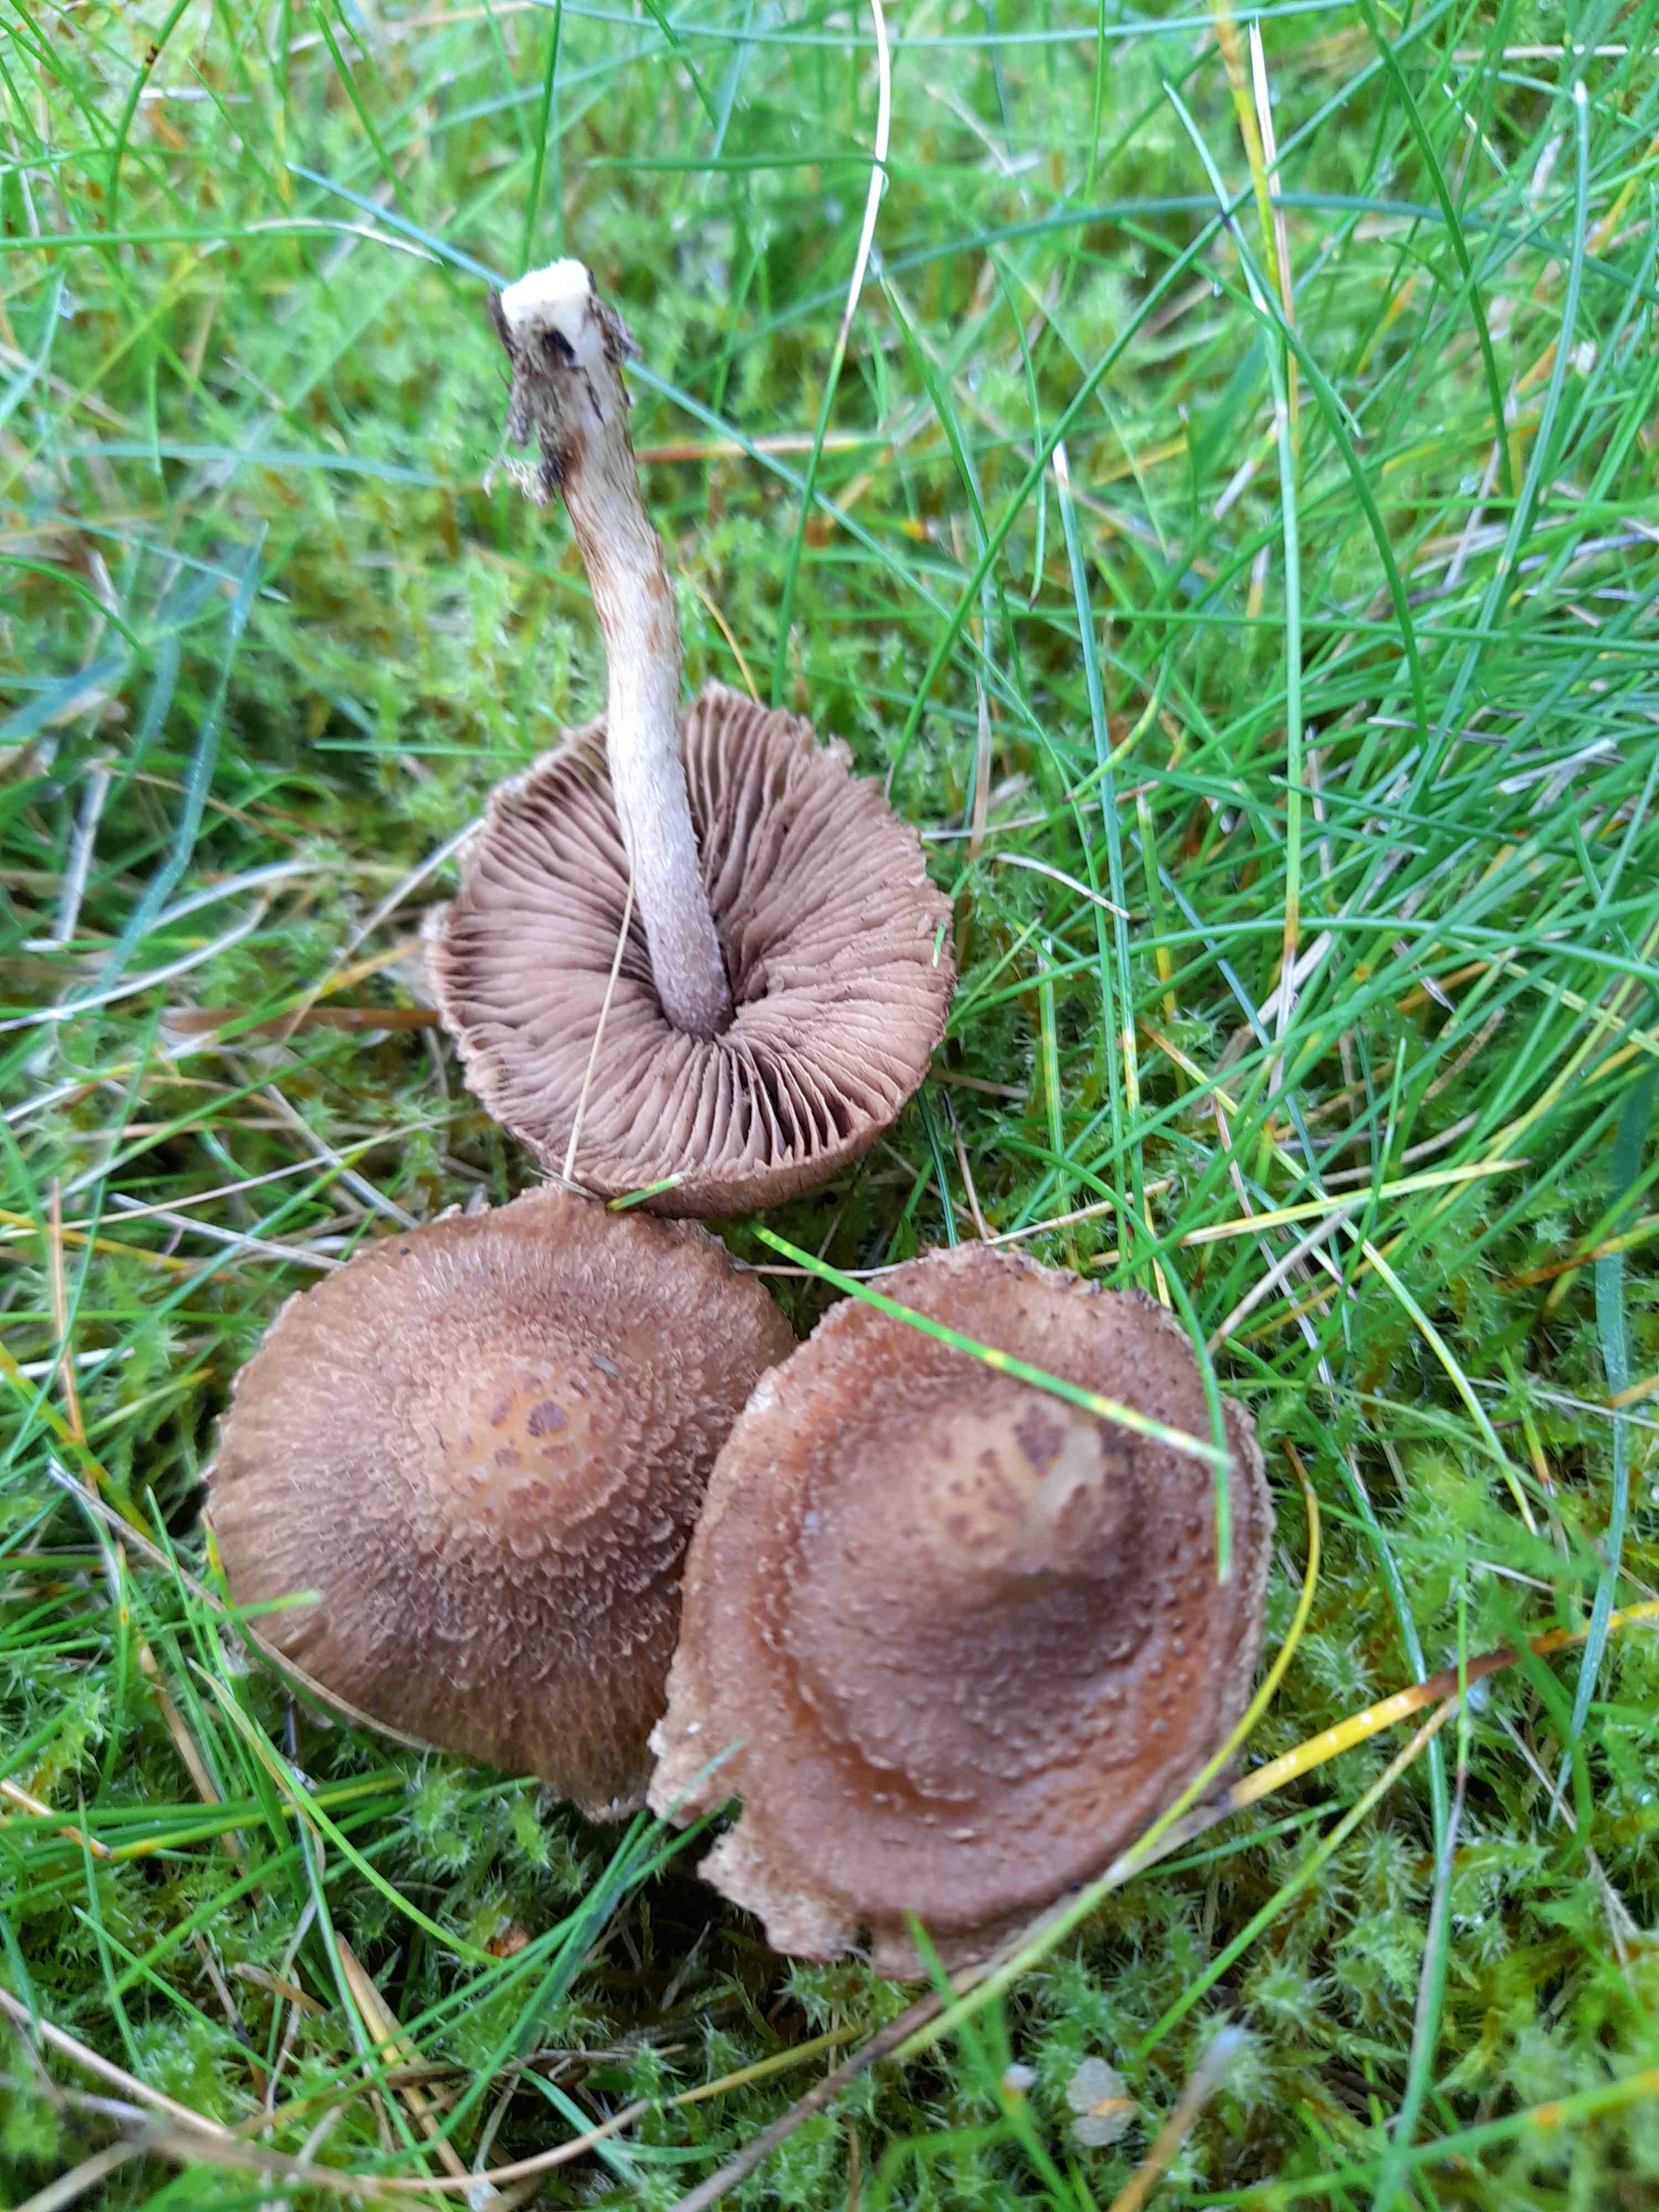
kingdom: Fungi
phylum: Basidiomycota
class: Agaricomycetes
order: Agaricales
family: Inocybaceae
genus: Inocybe
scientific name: Inocybe cincinnata
